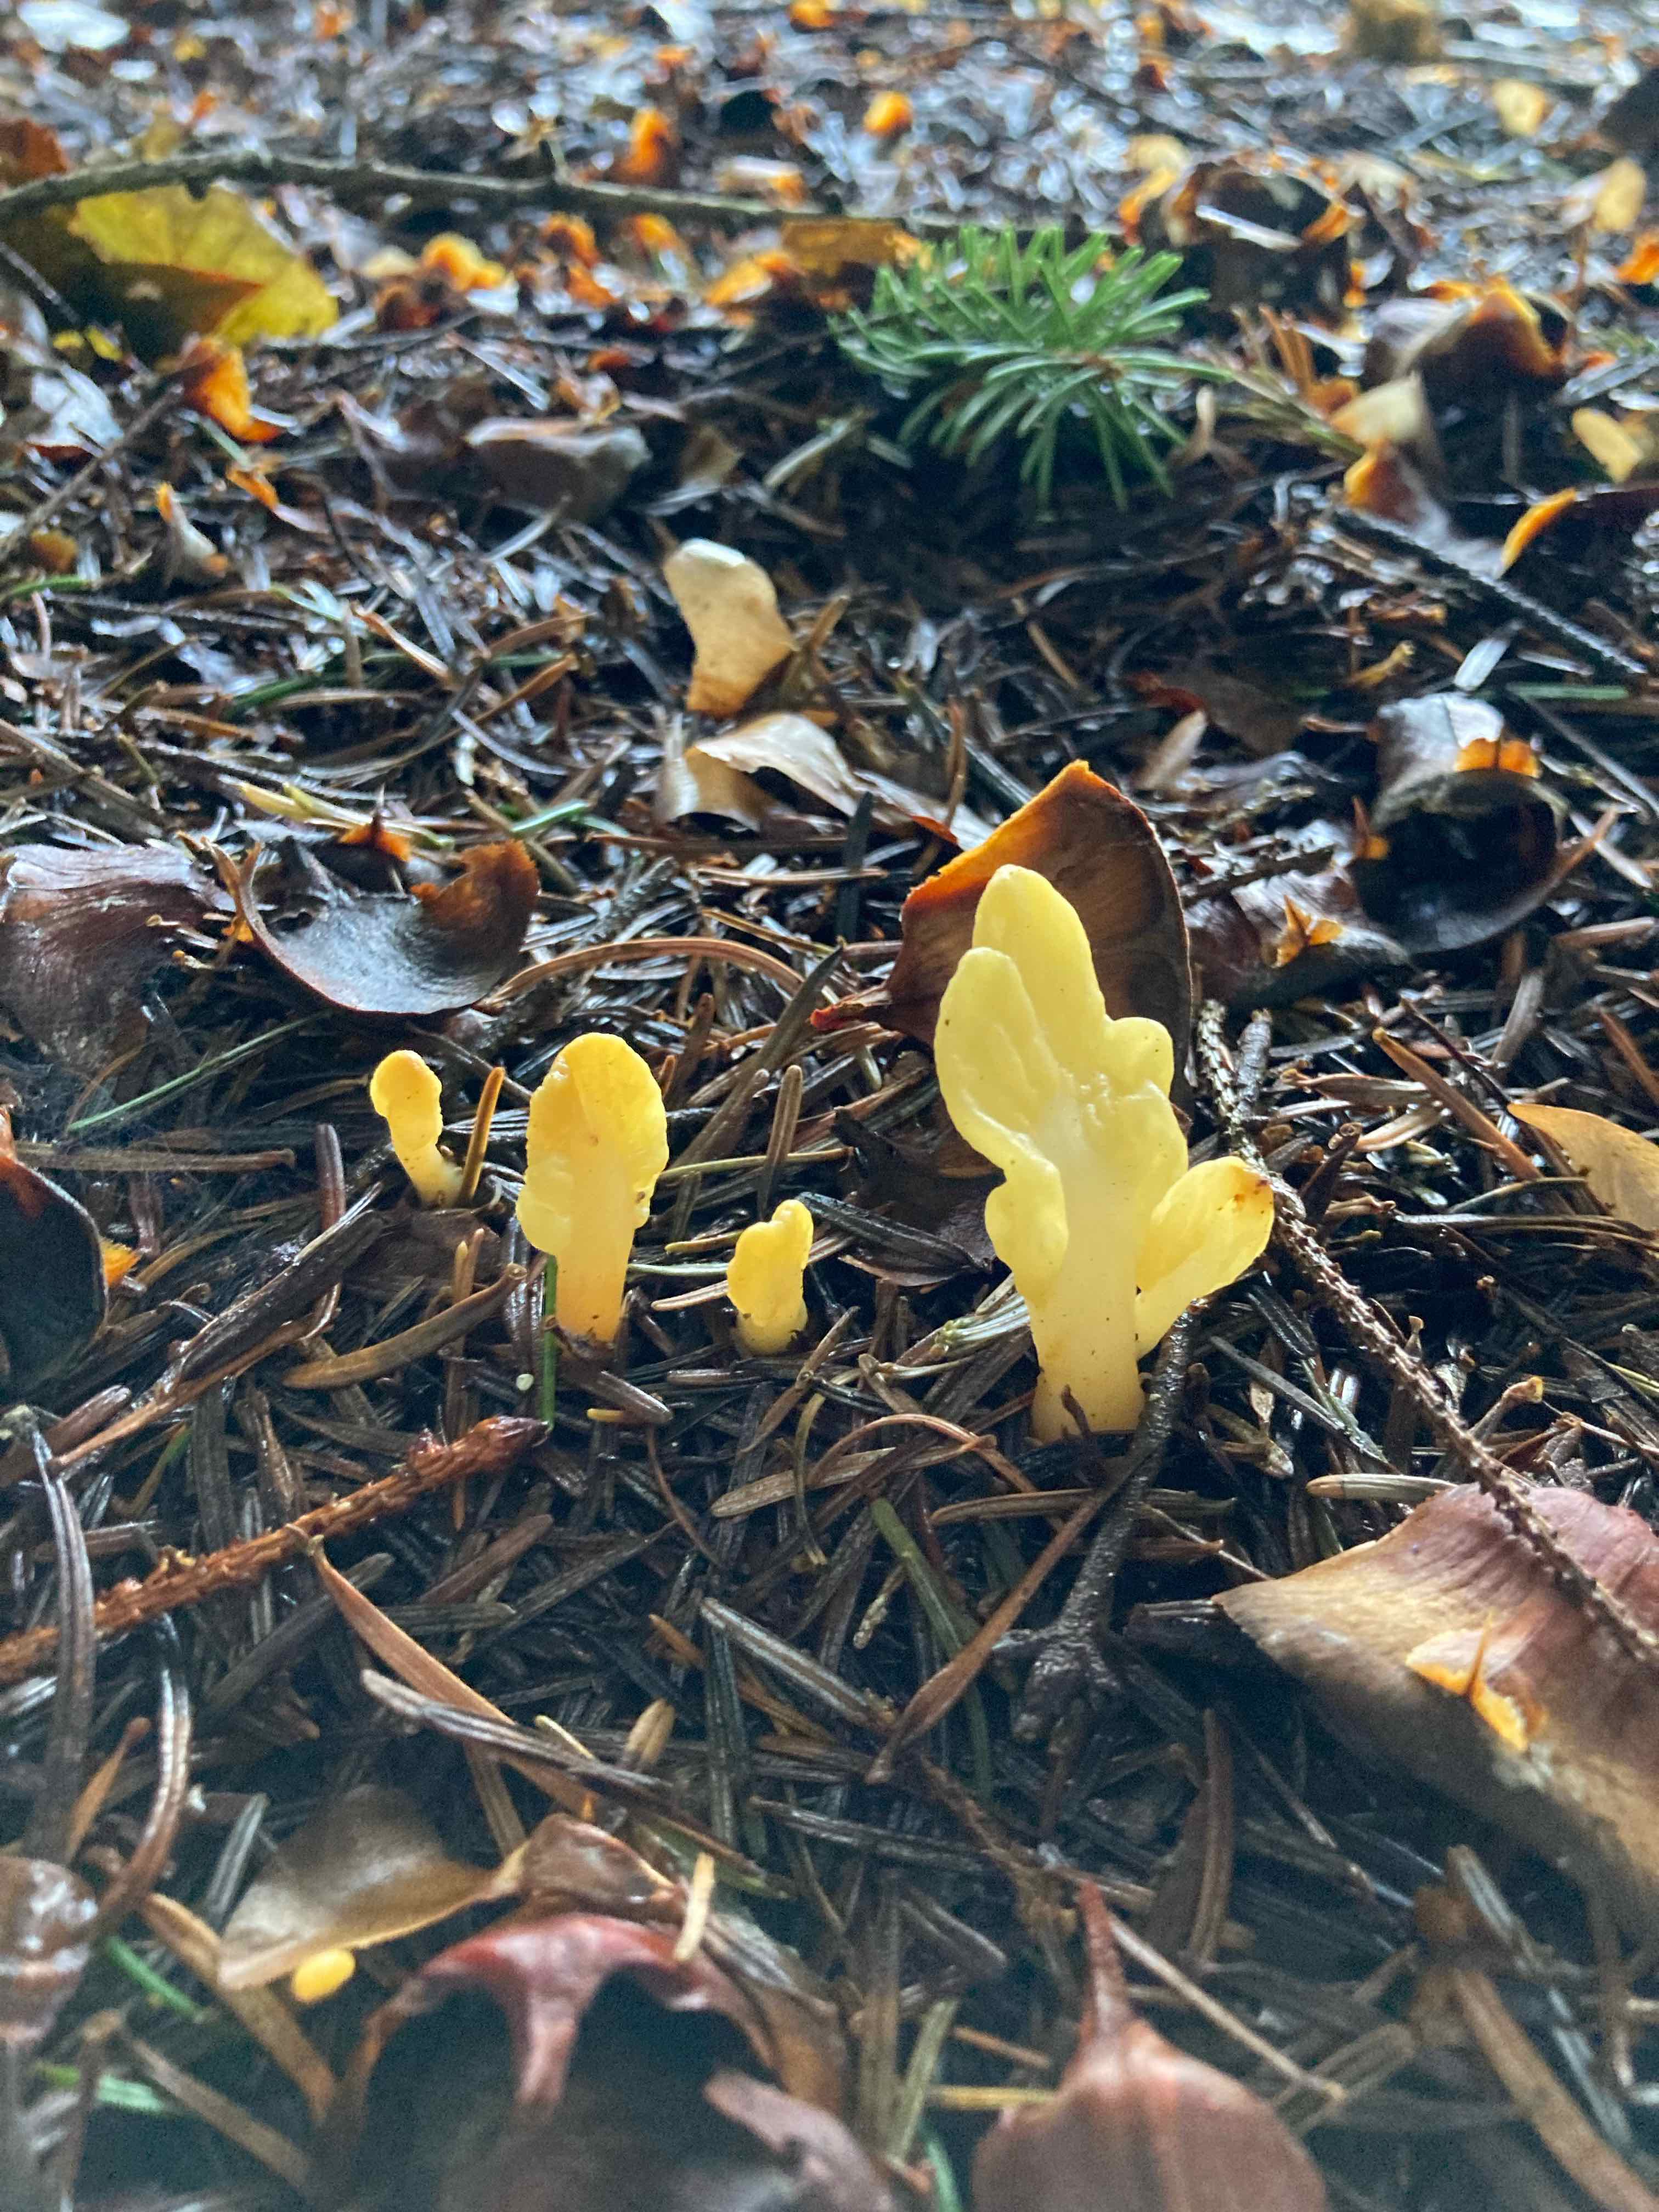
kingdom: Fungi
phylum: Ascomycota
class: Leotiomycetes
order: Rhytismatales
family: Cudoniaceae
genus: Spathularia
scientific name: Spathularia flavida
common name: gul spatelsvamp
